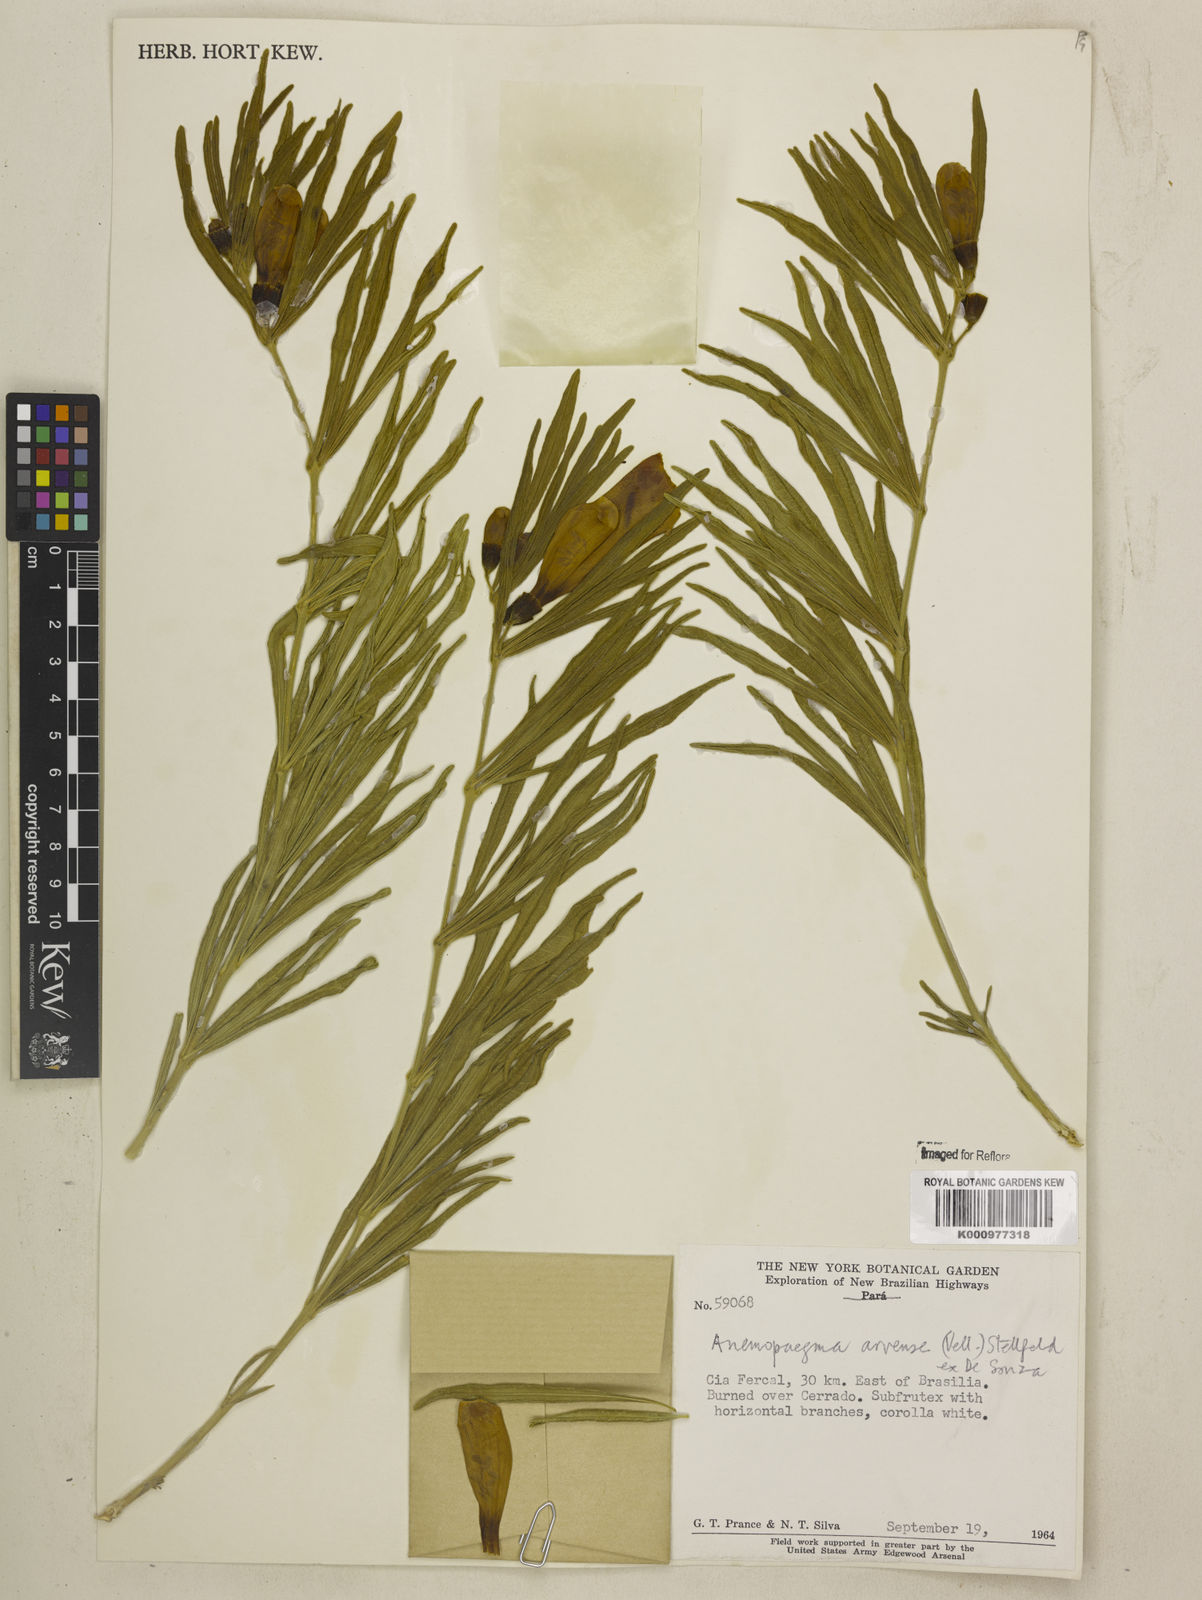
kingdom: Plantae
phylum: Tracheophyta
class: Magnoliopsida
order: Lamiales
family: Bignoniaceae
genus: Anemopaegma
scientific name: Anemopaegma arvense
